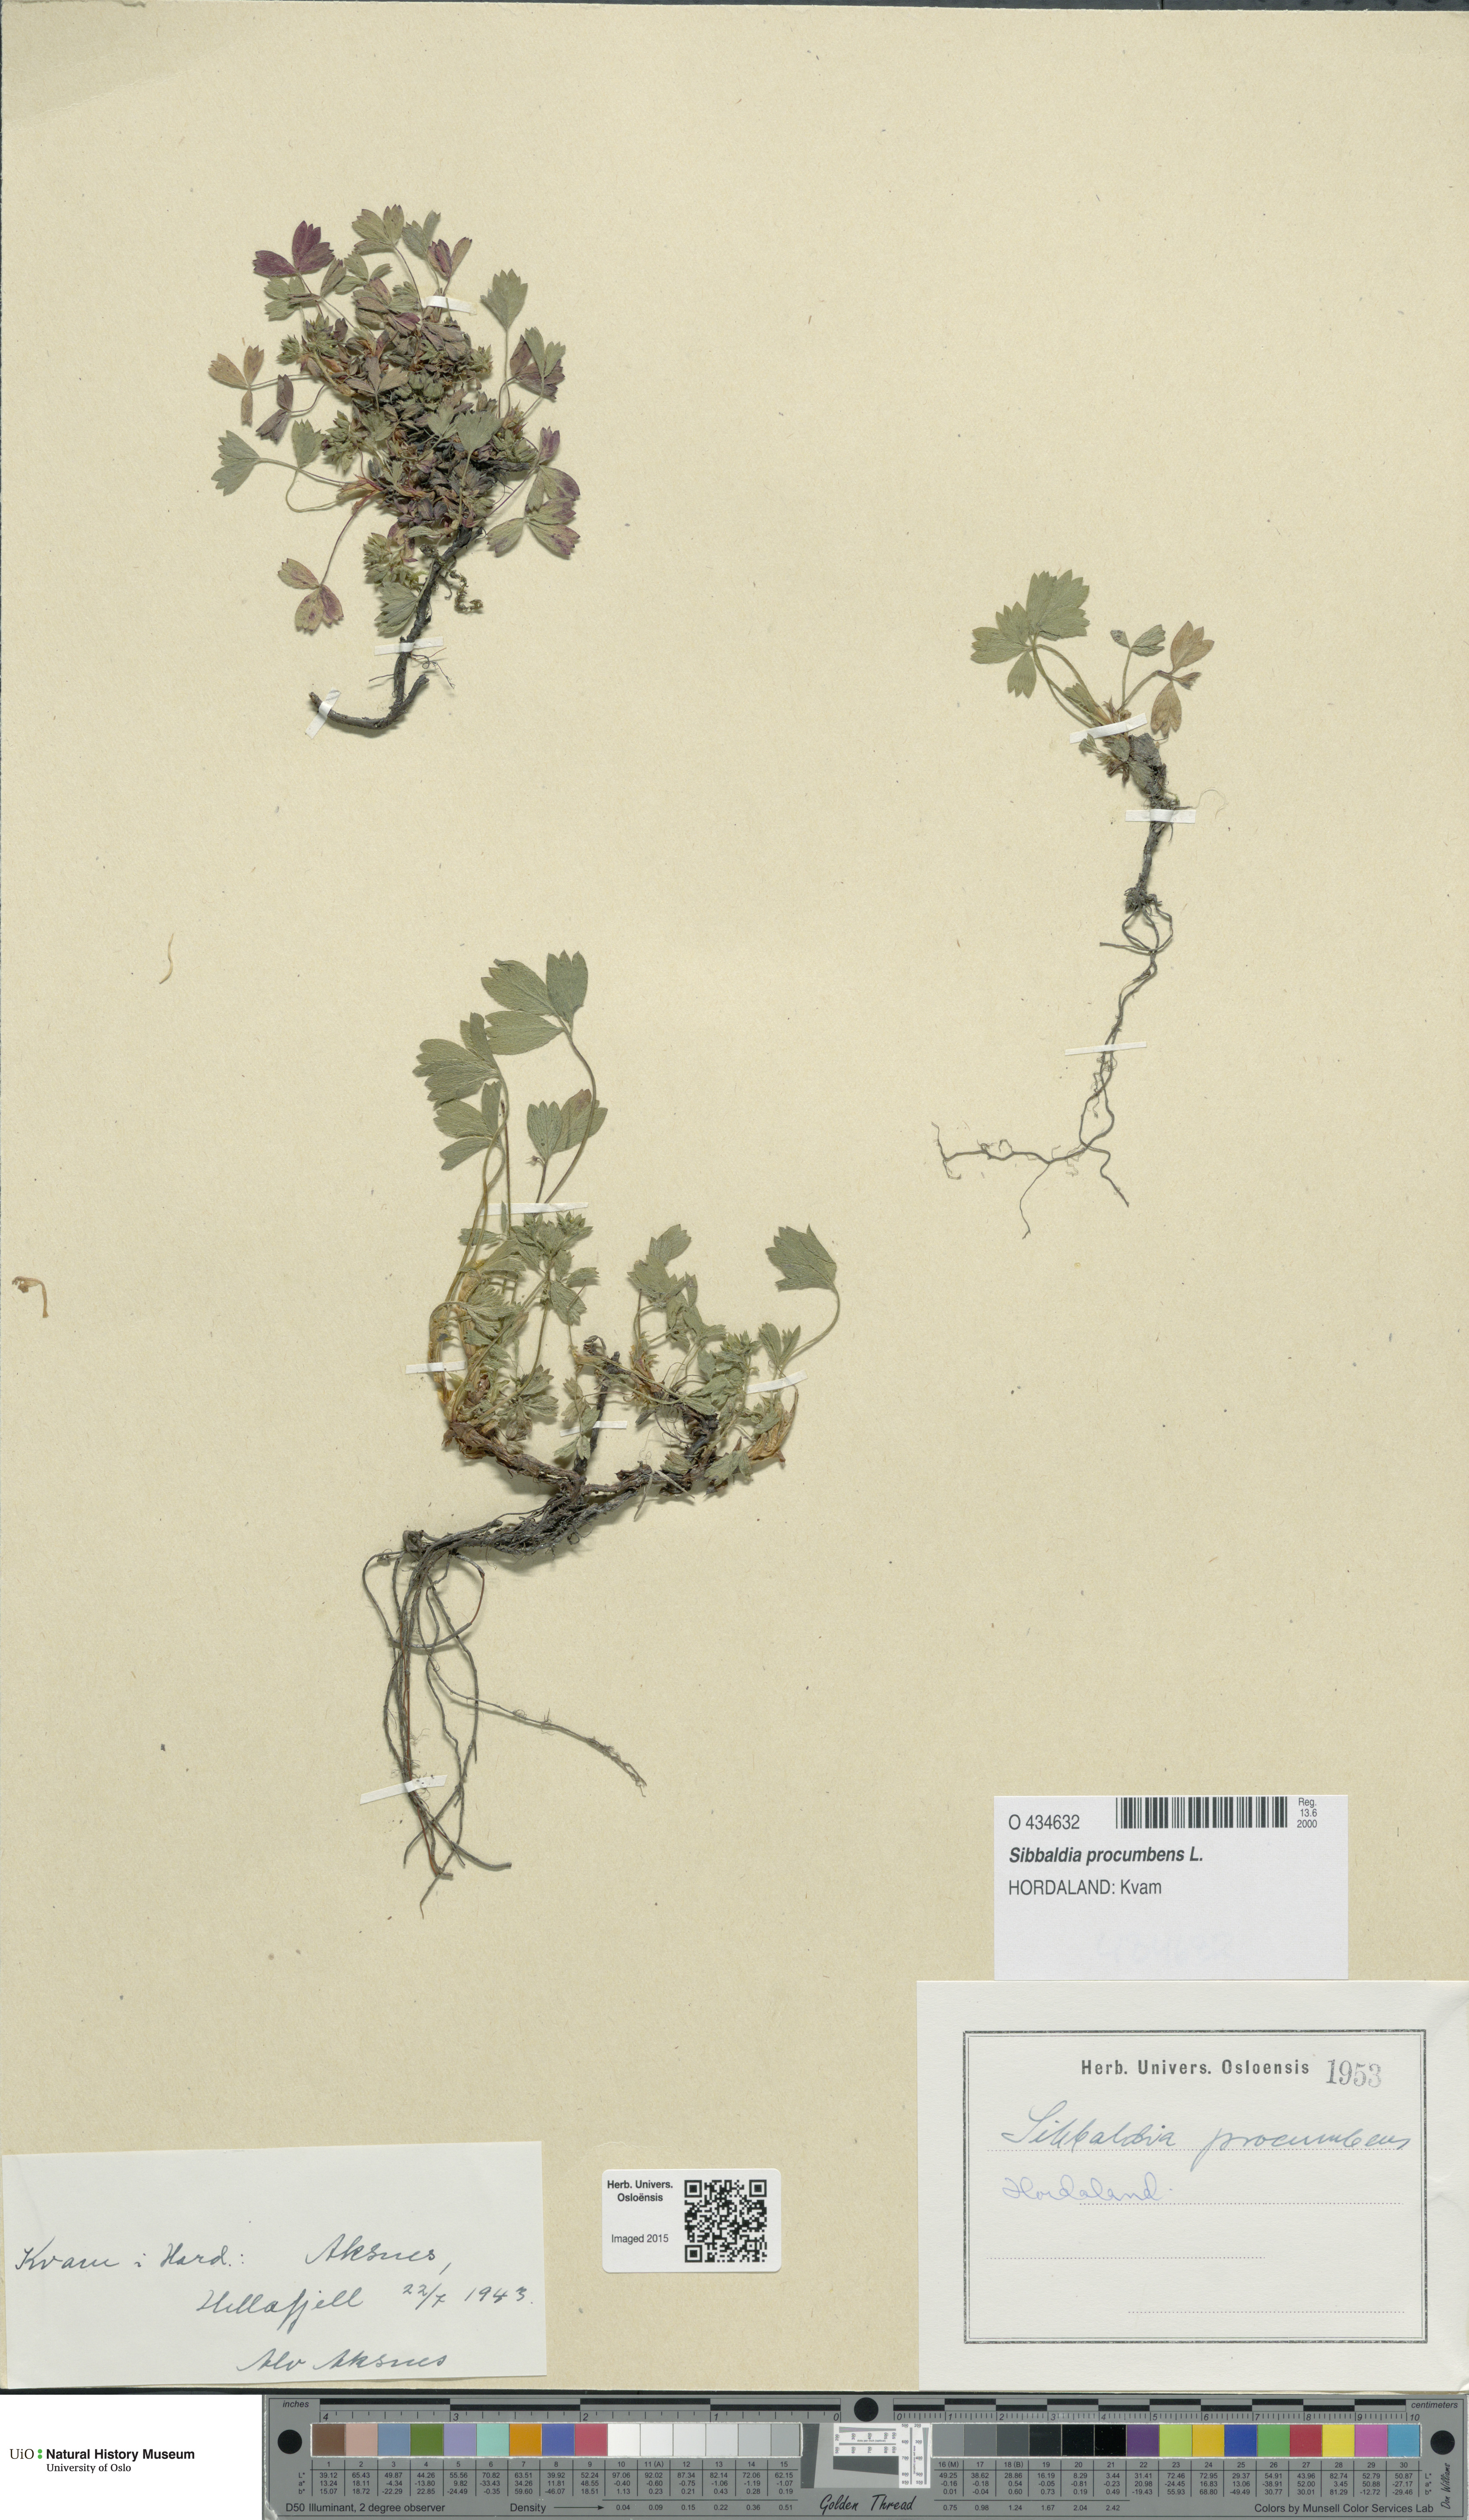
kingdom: Plantae
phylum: Tracheophyta
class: Magnoliopsida
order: Rosales
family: Rosaceae
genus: Sibbaldia
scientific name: Sibbaldia procumbens
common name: Creeping sibbaldia
